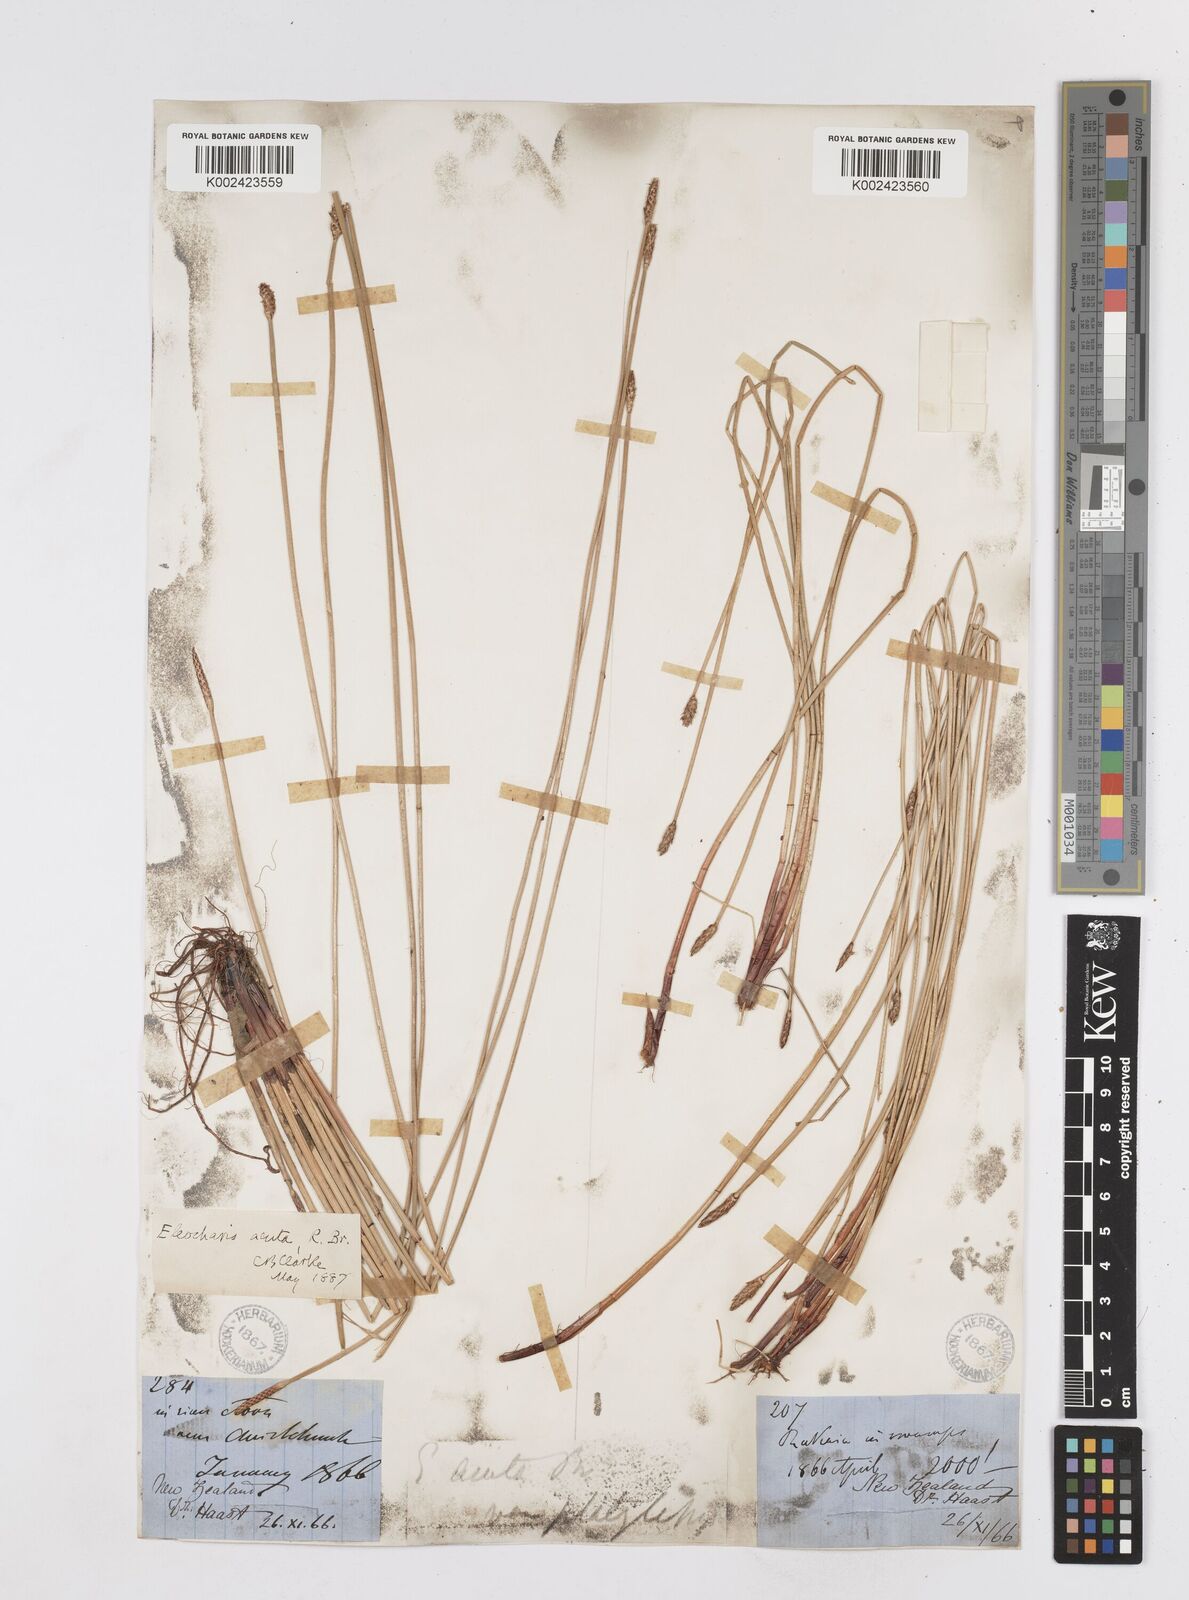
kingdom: Plantae
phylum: Tracheophyta
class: Liliopsida
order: Poales
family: Cyperaceae
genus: Eleocharis
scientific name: Eleocharis acuta
